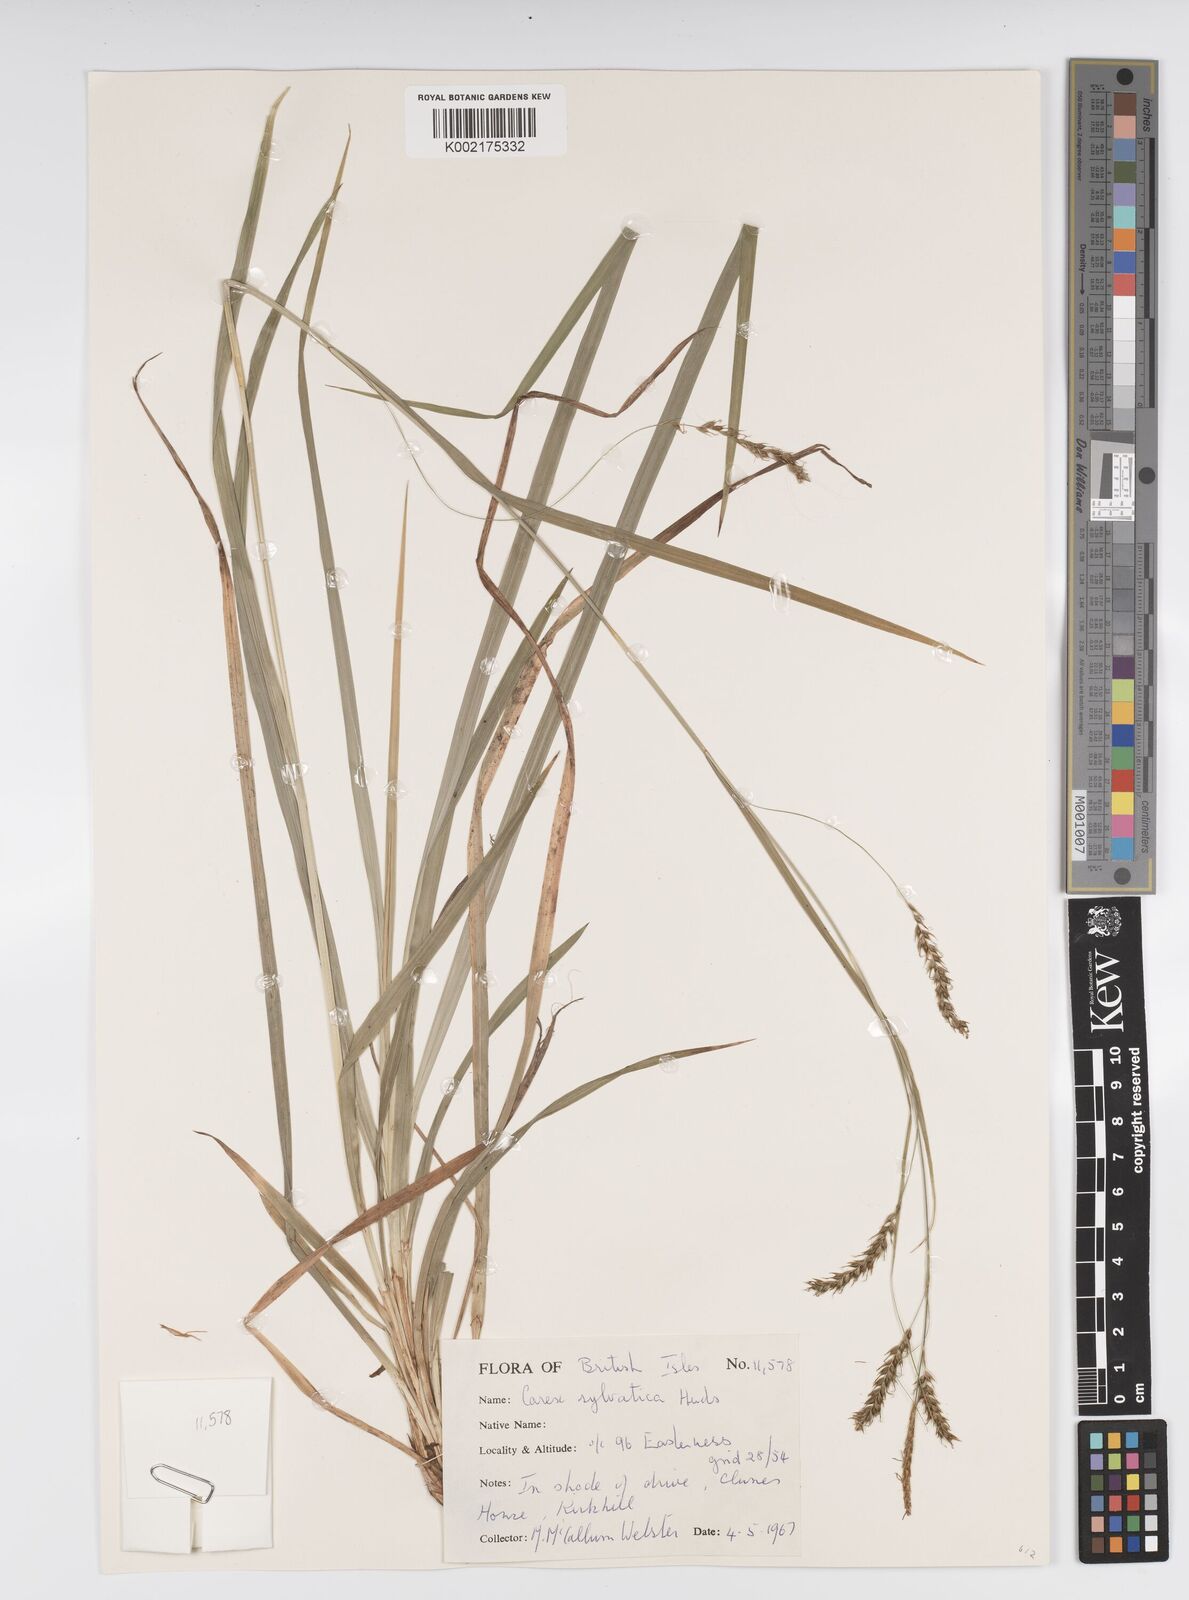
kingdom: Plantae
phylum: Tracheophyta
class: Liliopsida
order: Poales
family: Cyperaceae
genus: Carex
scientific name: Carex sylvatica
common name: Wood-sedge
